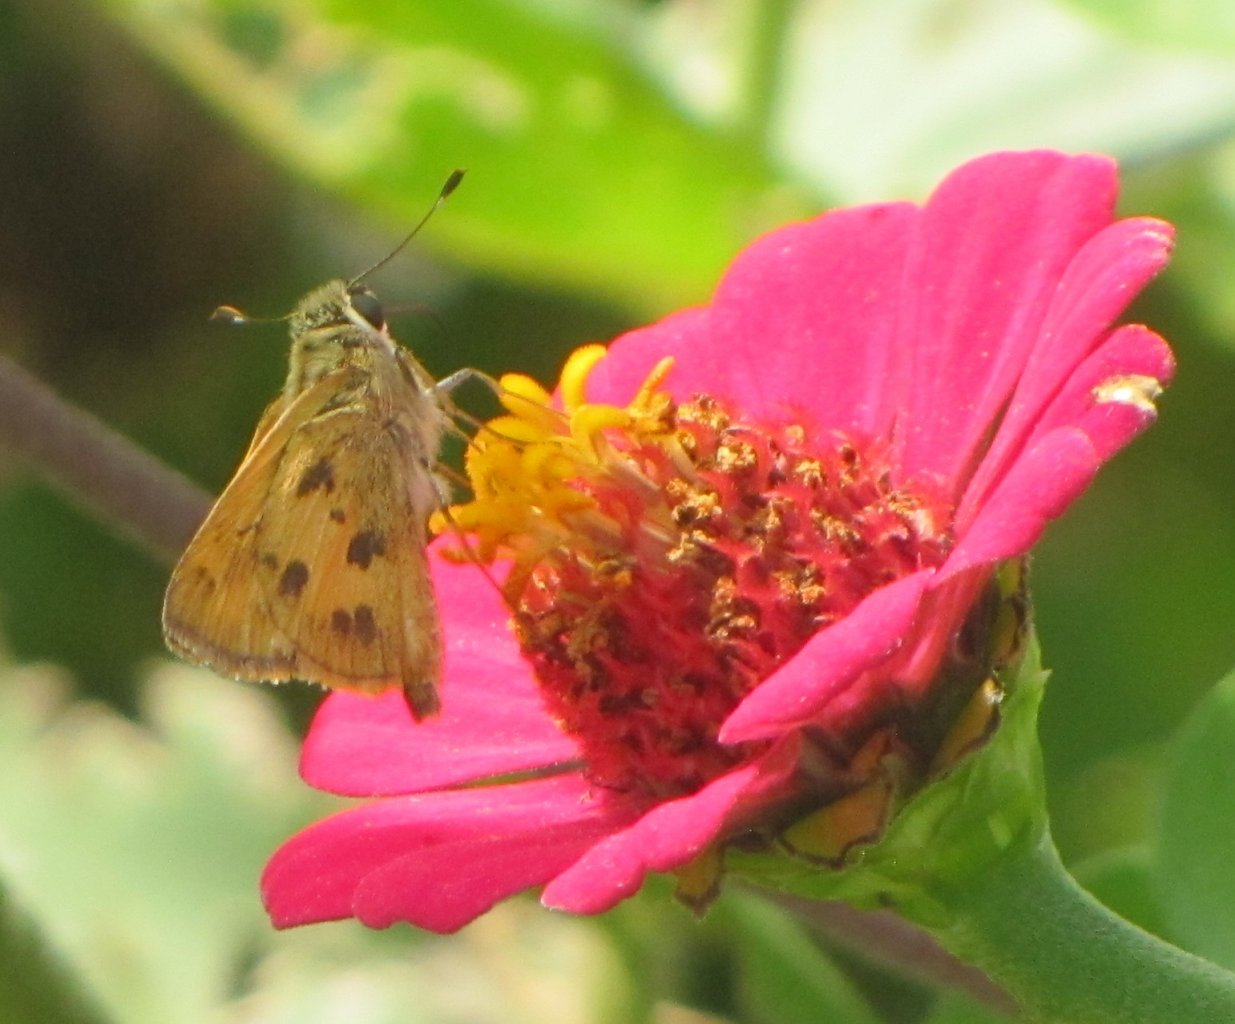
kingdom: Animalia
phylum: Arthropoda
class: Insecta
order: Lepidoptera
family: Hesperiidae
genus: Polites
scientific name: Polites vibex
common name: Whirlabout
